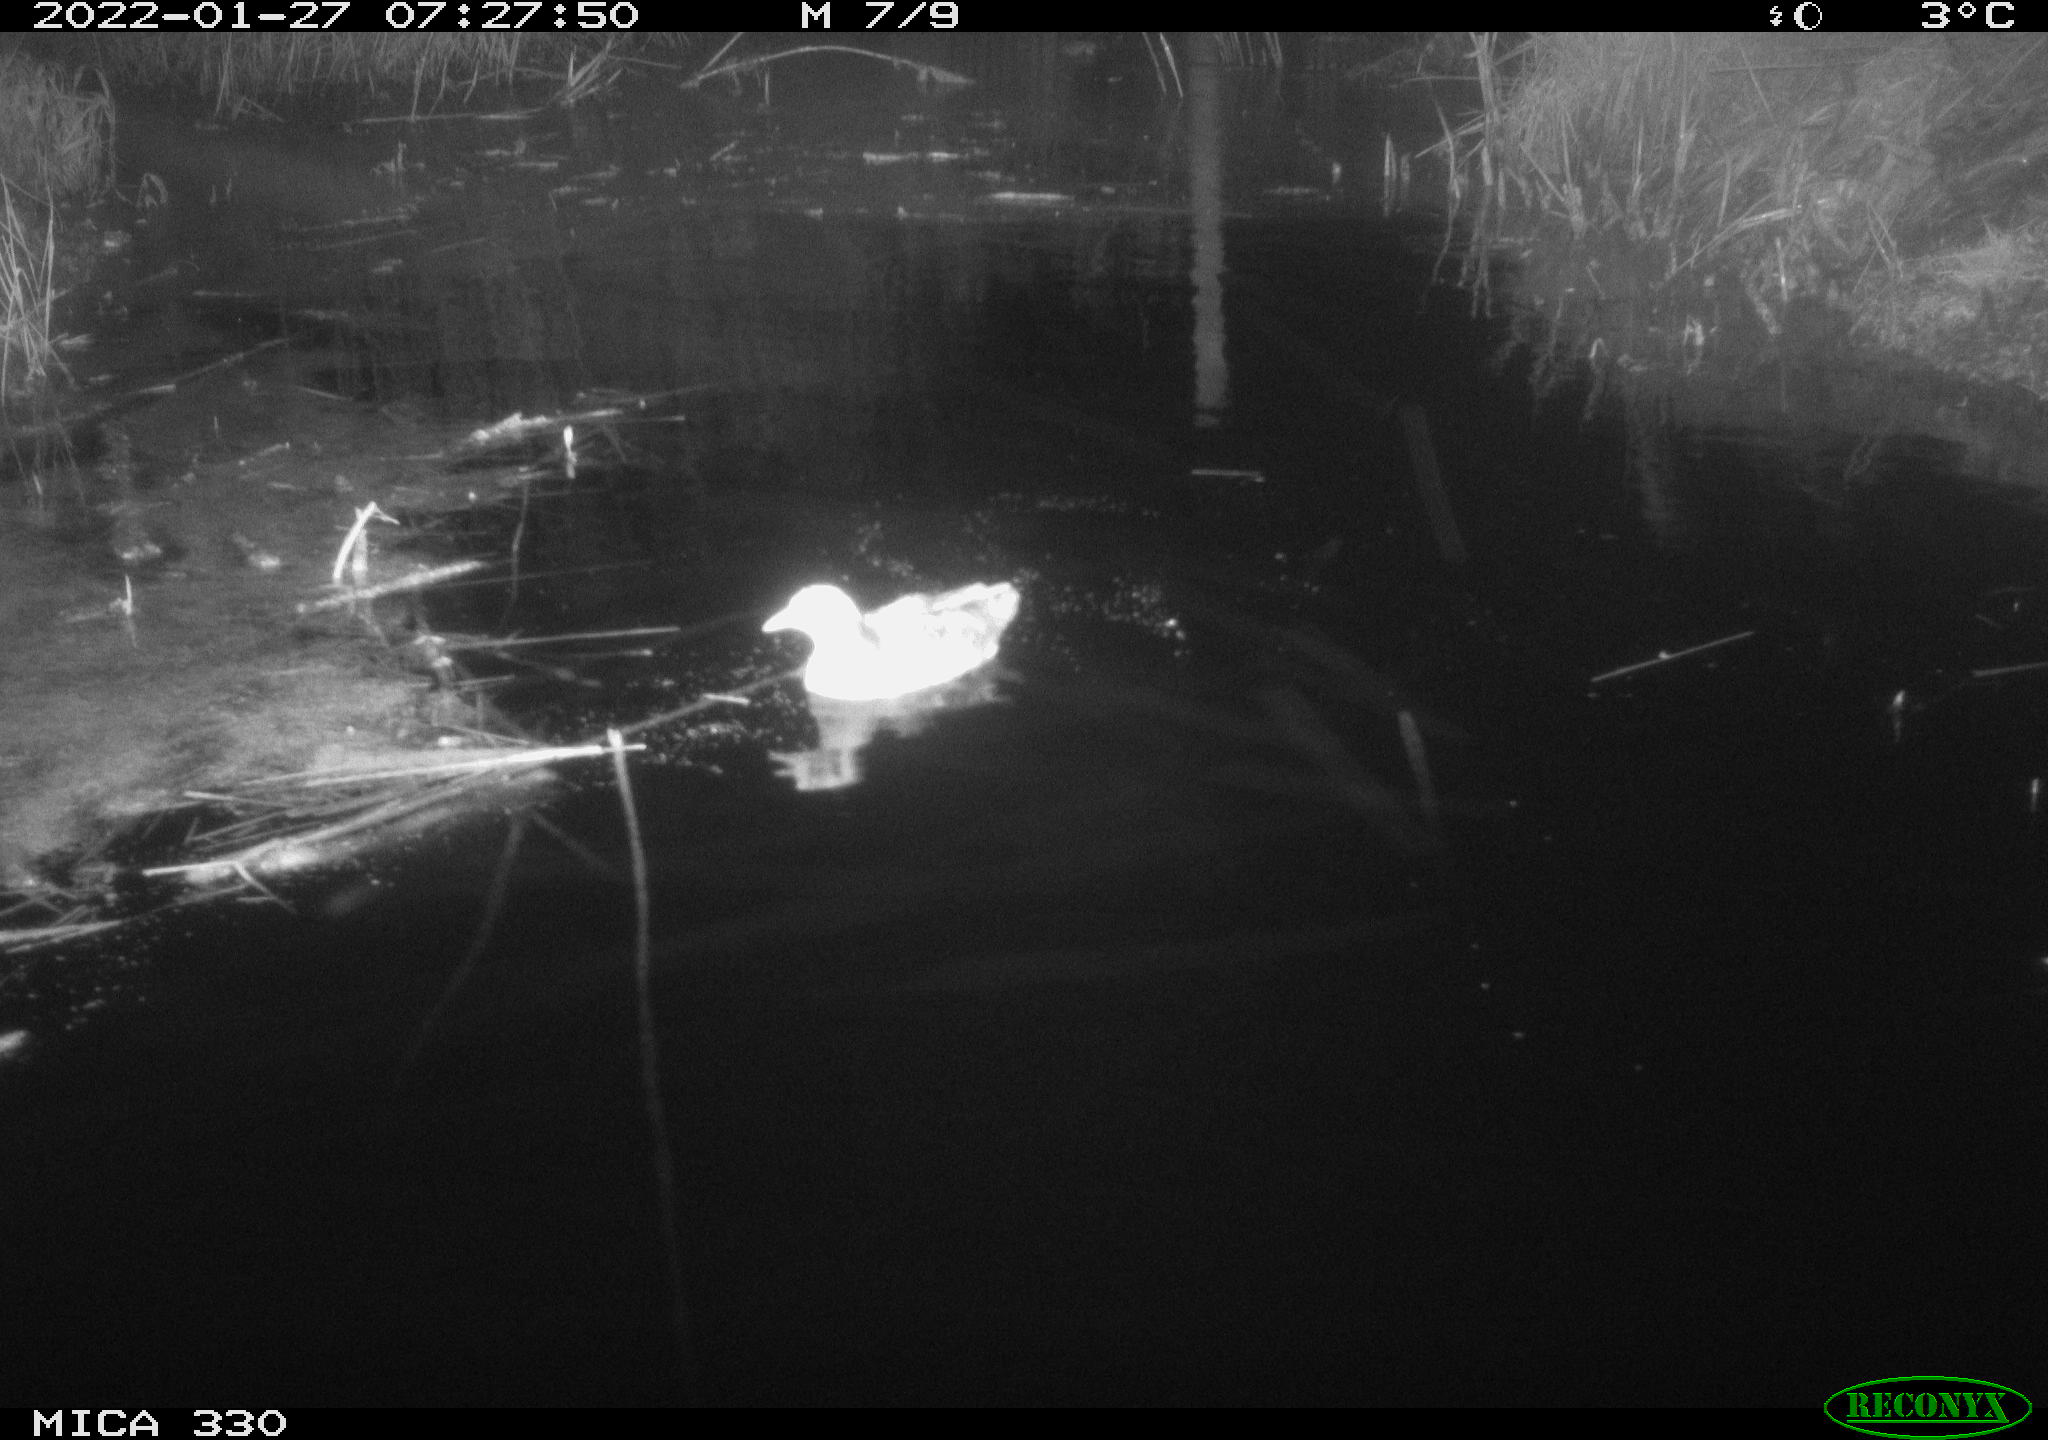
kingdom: Animalia
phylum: Chordata
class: Aves
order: Gruiformes
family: Rallidae
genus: Gallinula
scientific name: Gallinula chloropus
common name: Common moorhen
